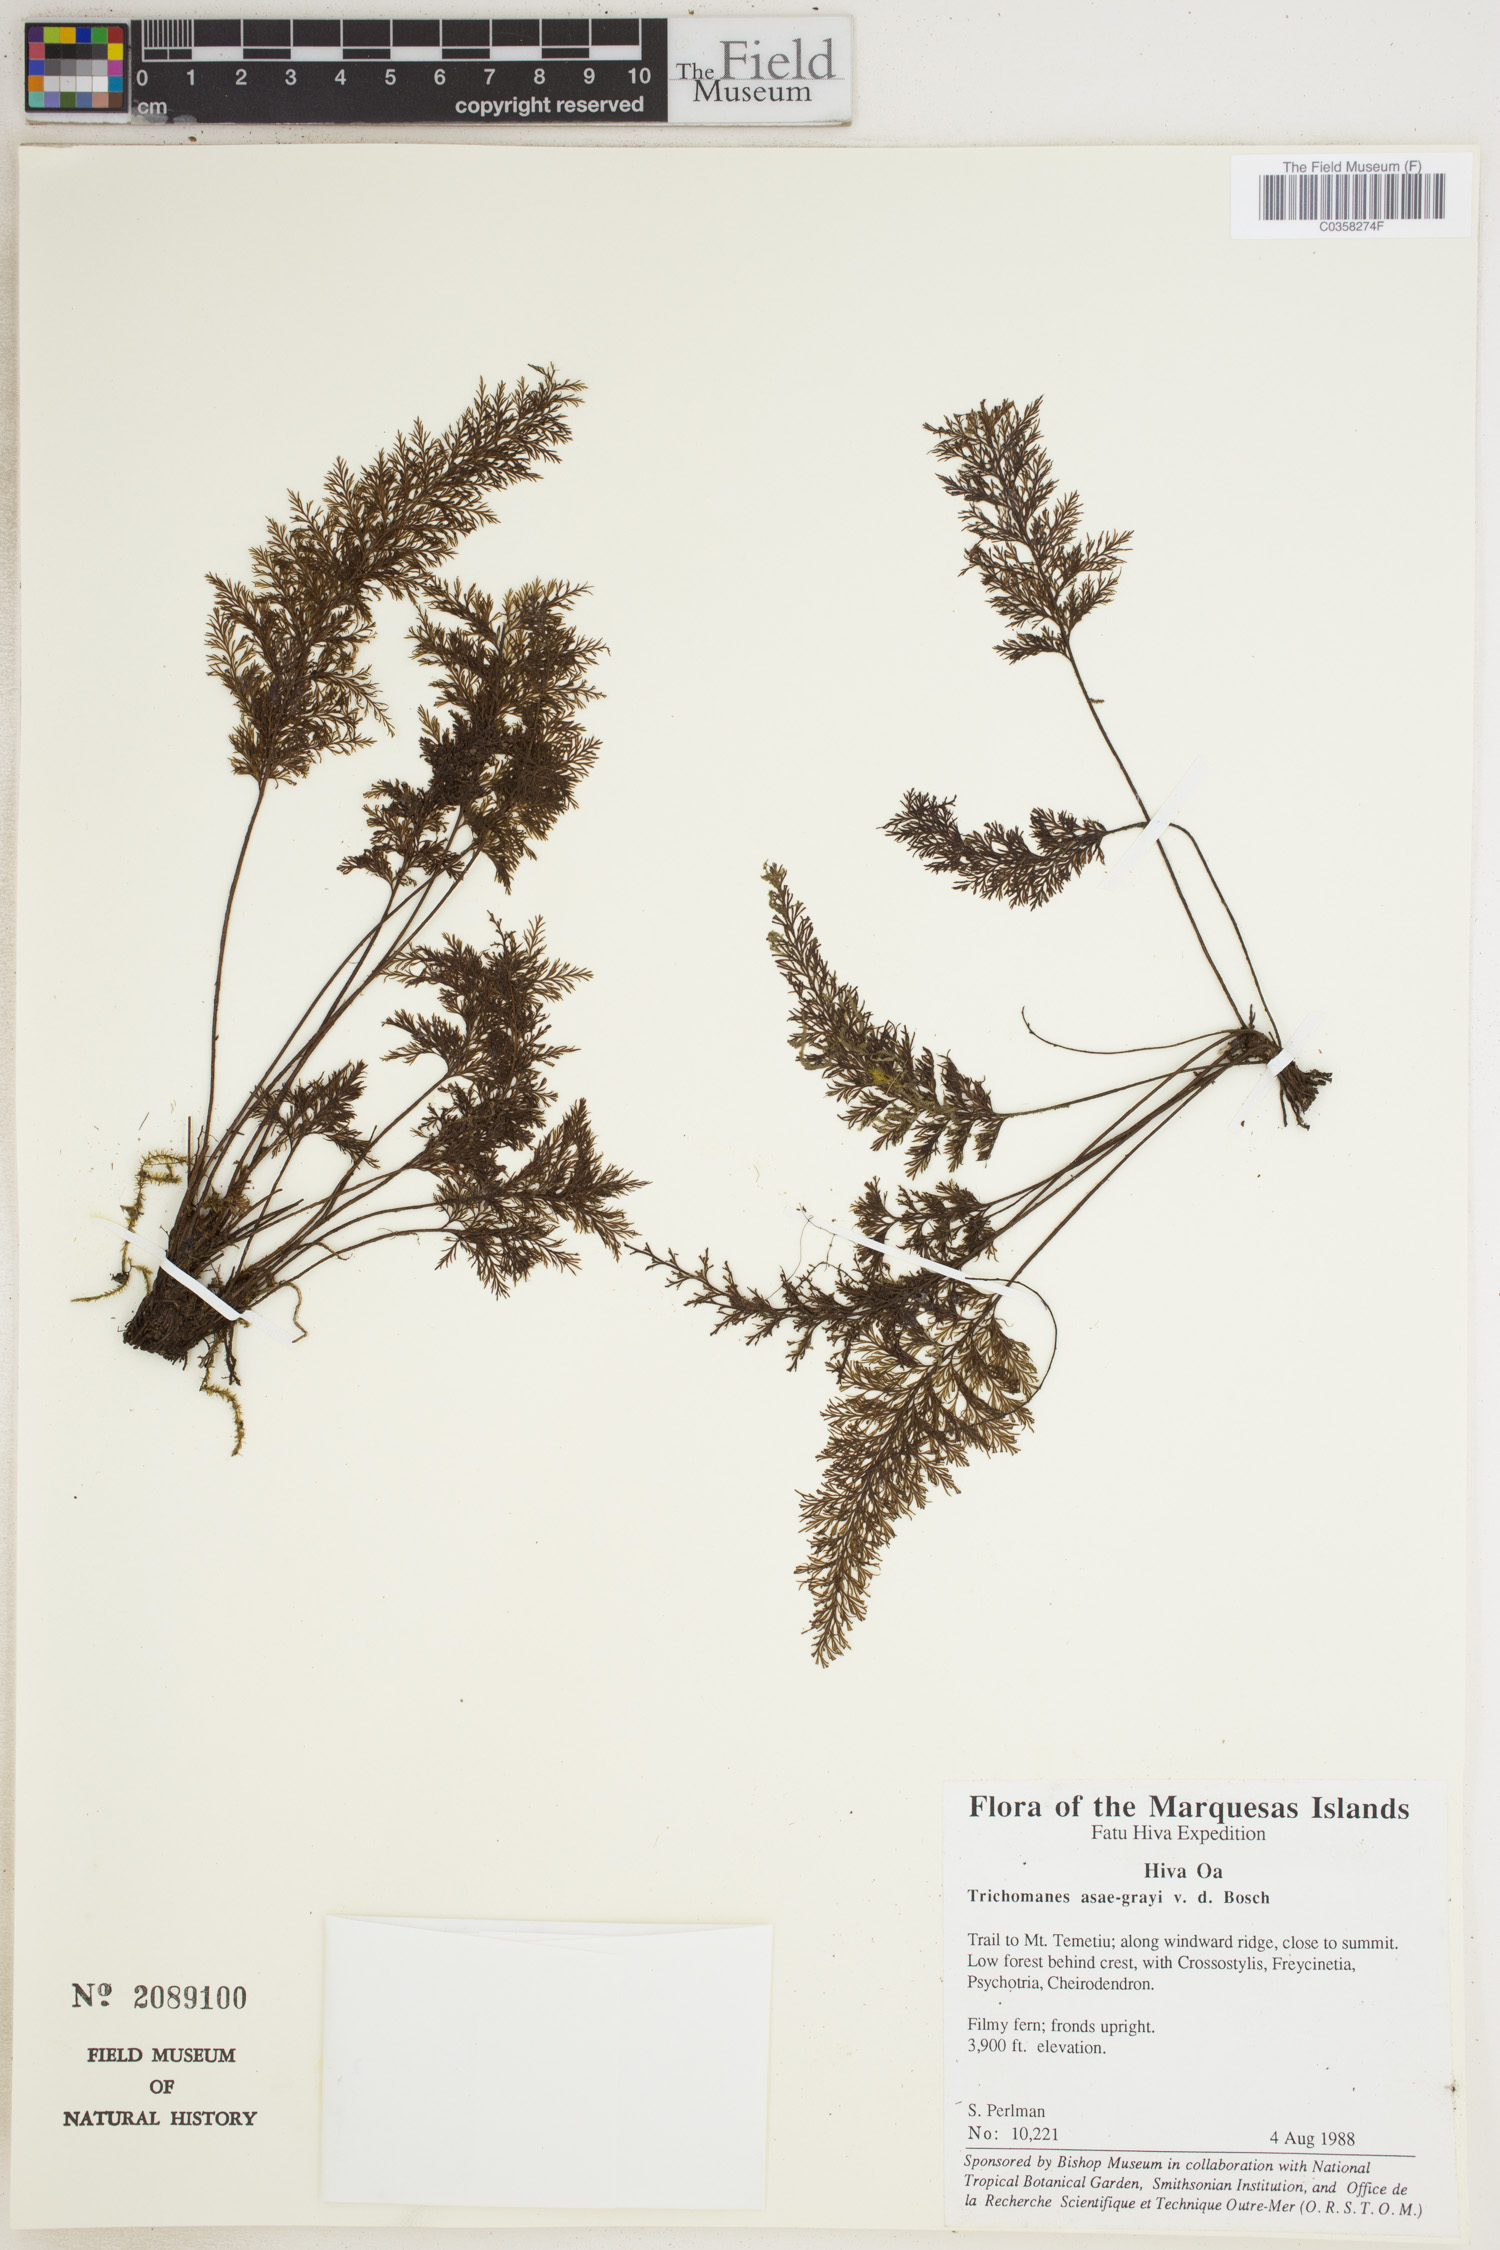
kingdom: Plantae
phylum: Tracheophyta
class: Polypodiopsida
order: Hymenophyllales
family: Hymenophyllaceae
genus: Abrodictyum
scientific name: Abrodictyum asae-grayi
